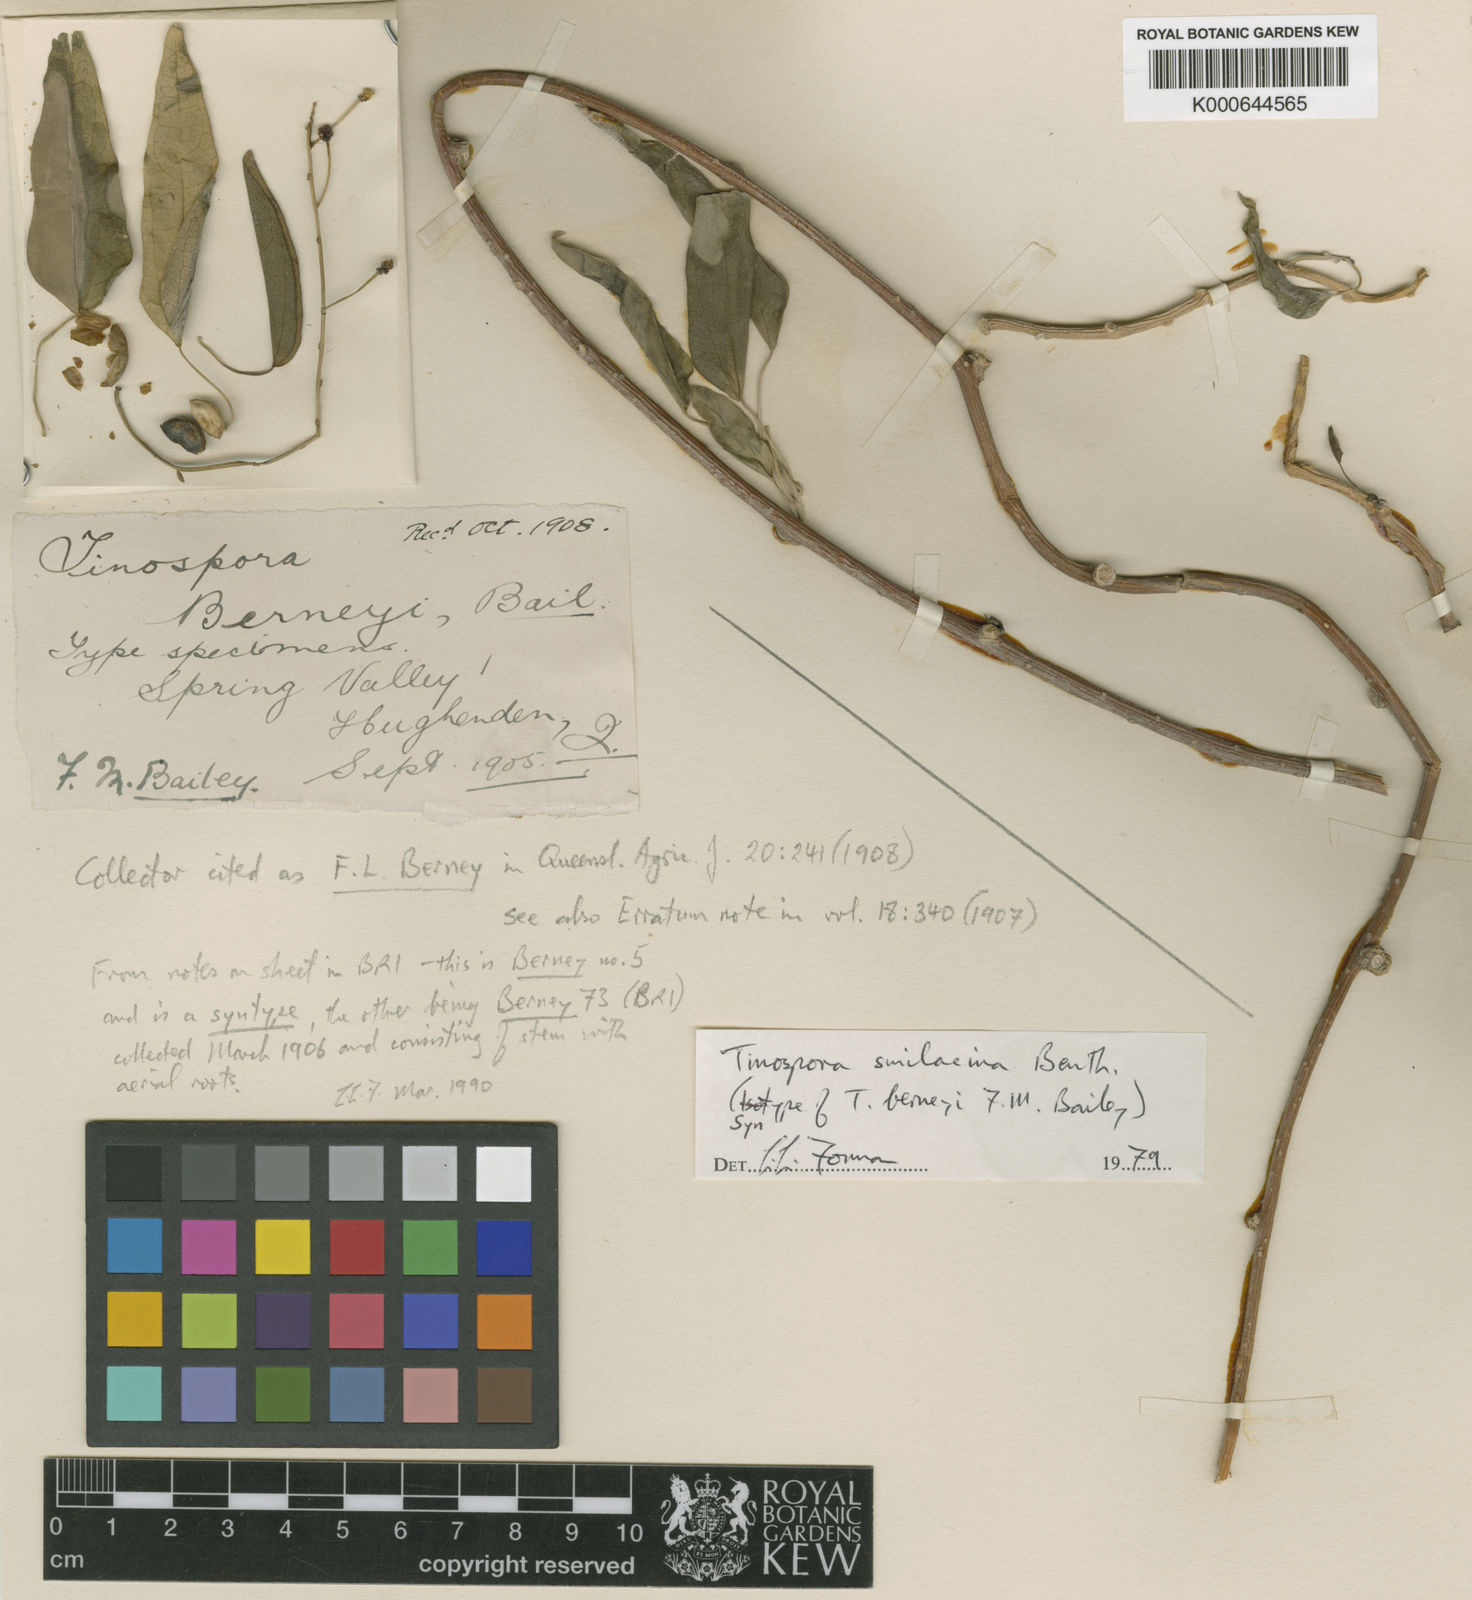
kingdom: Plantae
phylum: Tracheophyta
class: Magnoliopsida
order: Ranunculales
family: Menispermaceae
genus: Tinospora
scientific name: Tinospora smilacina
